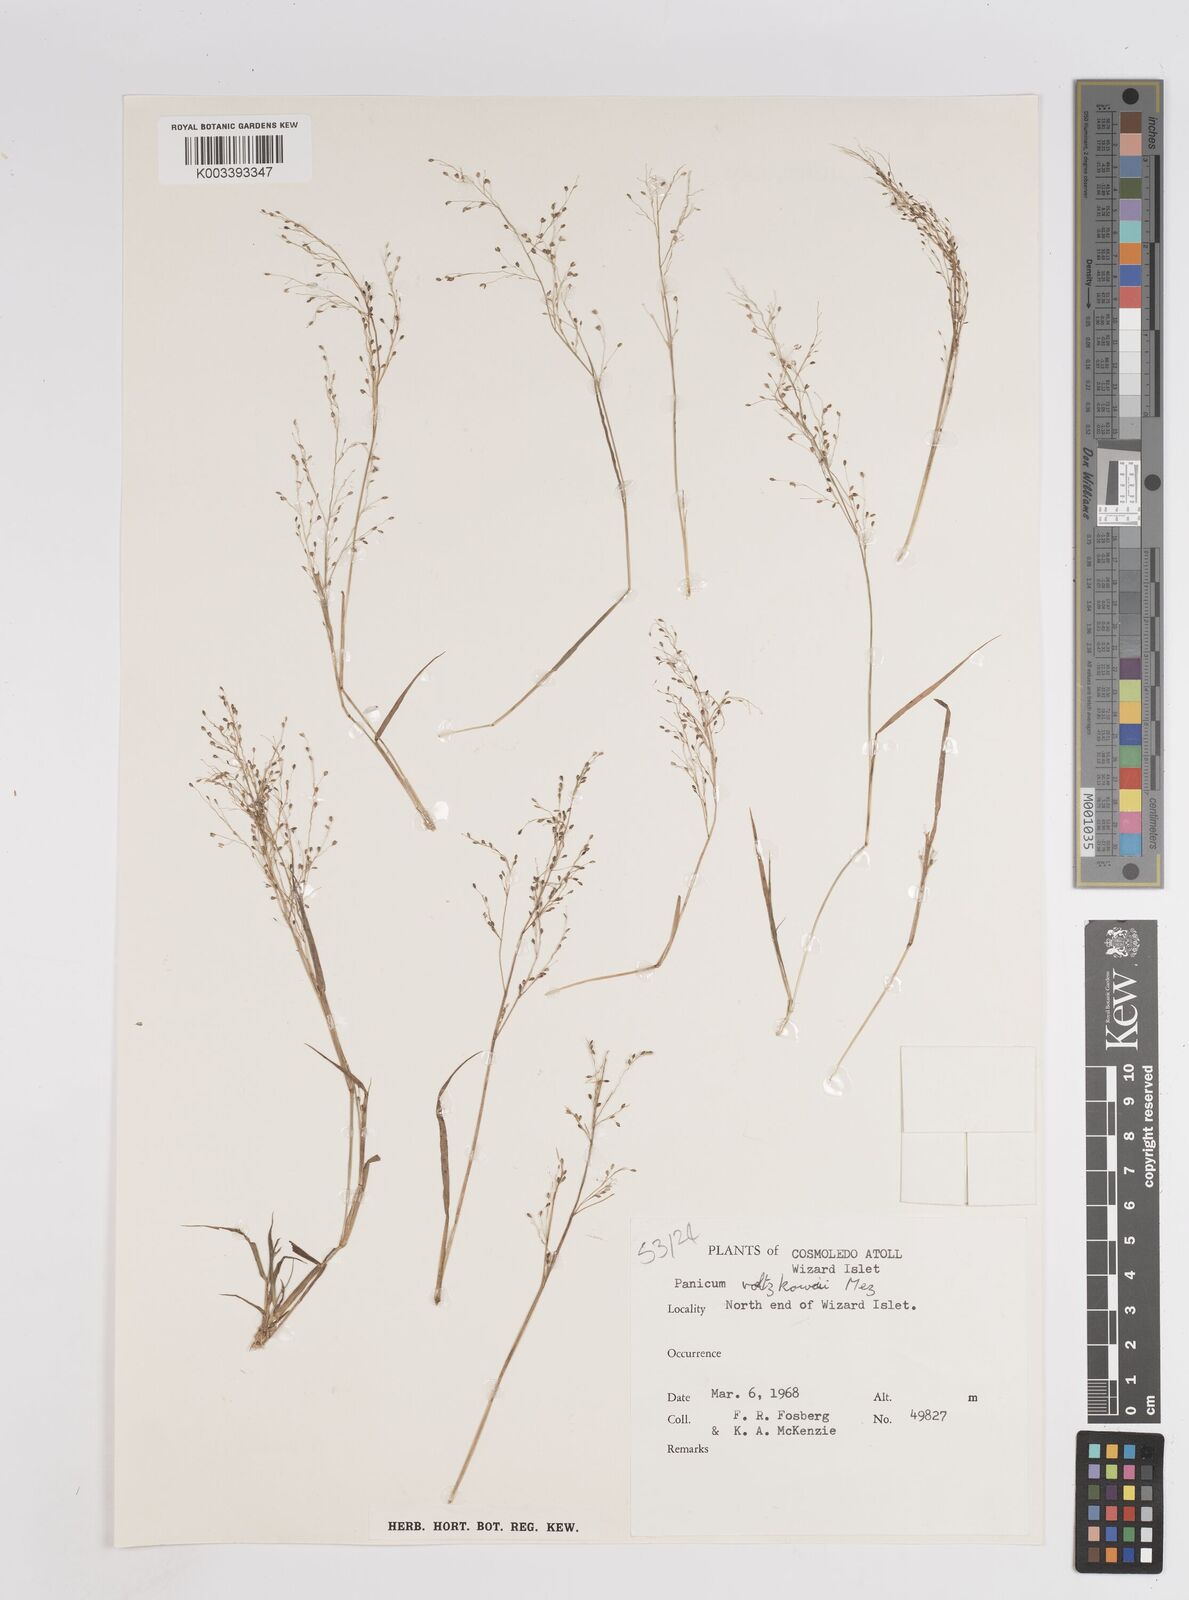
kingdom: Plantae
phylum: Tracheophyta
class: Liliopsida
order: Poales
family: Poaceae
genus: Panicum
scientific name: Panicum voeltzkowii
